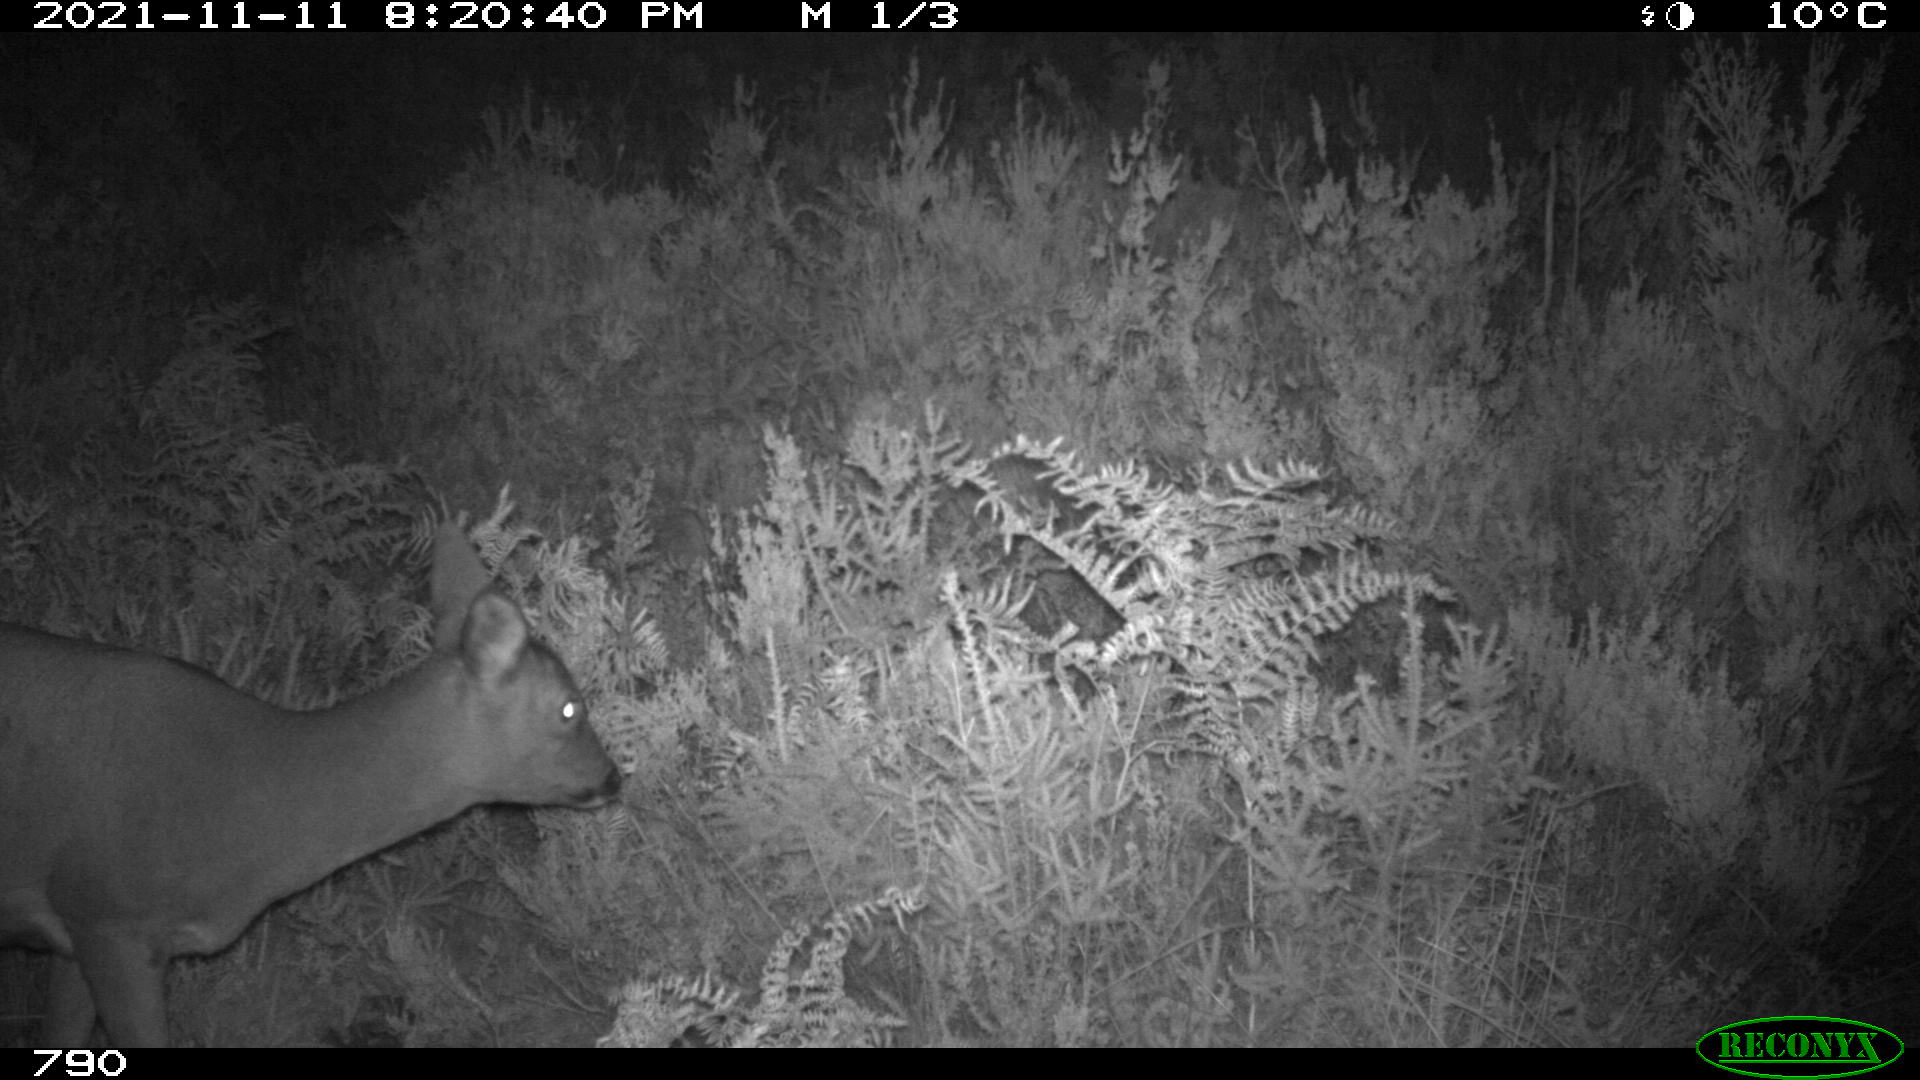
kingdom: Animalia
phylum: Chordata
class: Mammalia
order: Artiodactyla
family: Cervidae
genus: Capreolus
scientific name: Capreolus capreolus
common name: Western roe deer
